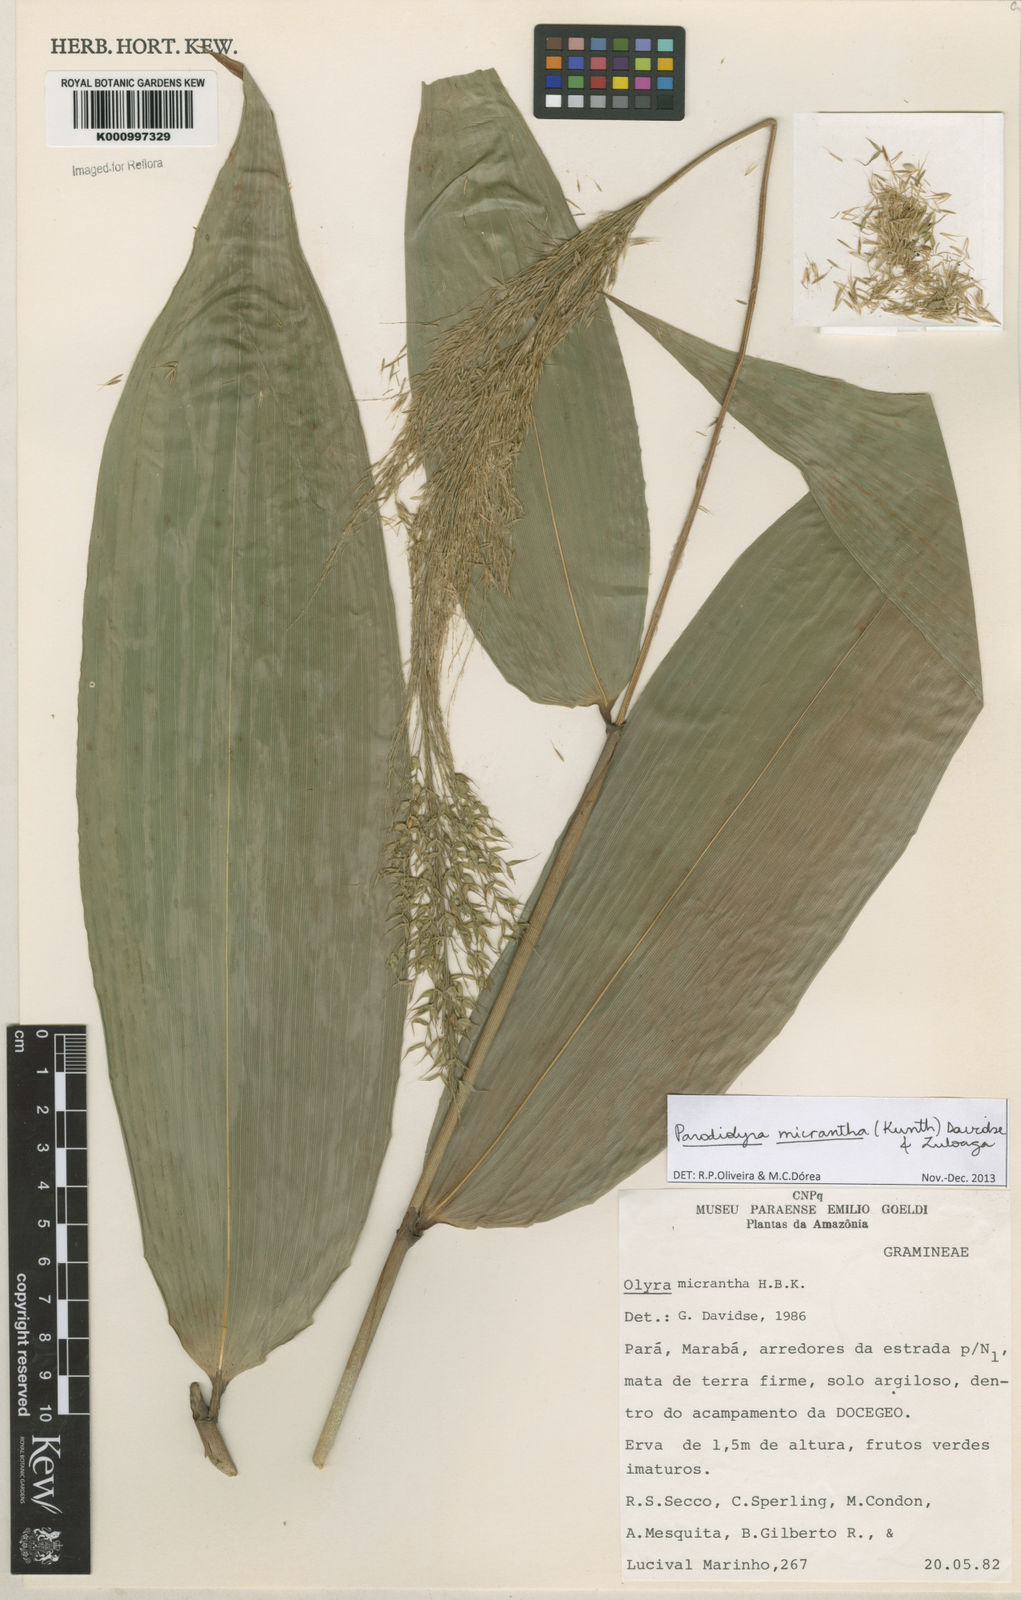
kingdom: Plantae
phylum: Tracheophyta
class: Liliopsida
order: Poales
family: Poaceae
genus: Taquara
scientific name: Taquara micrantha
